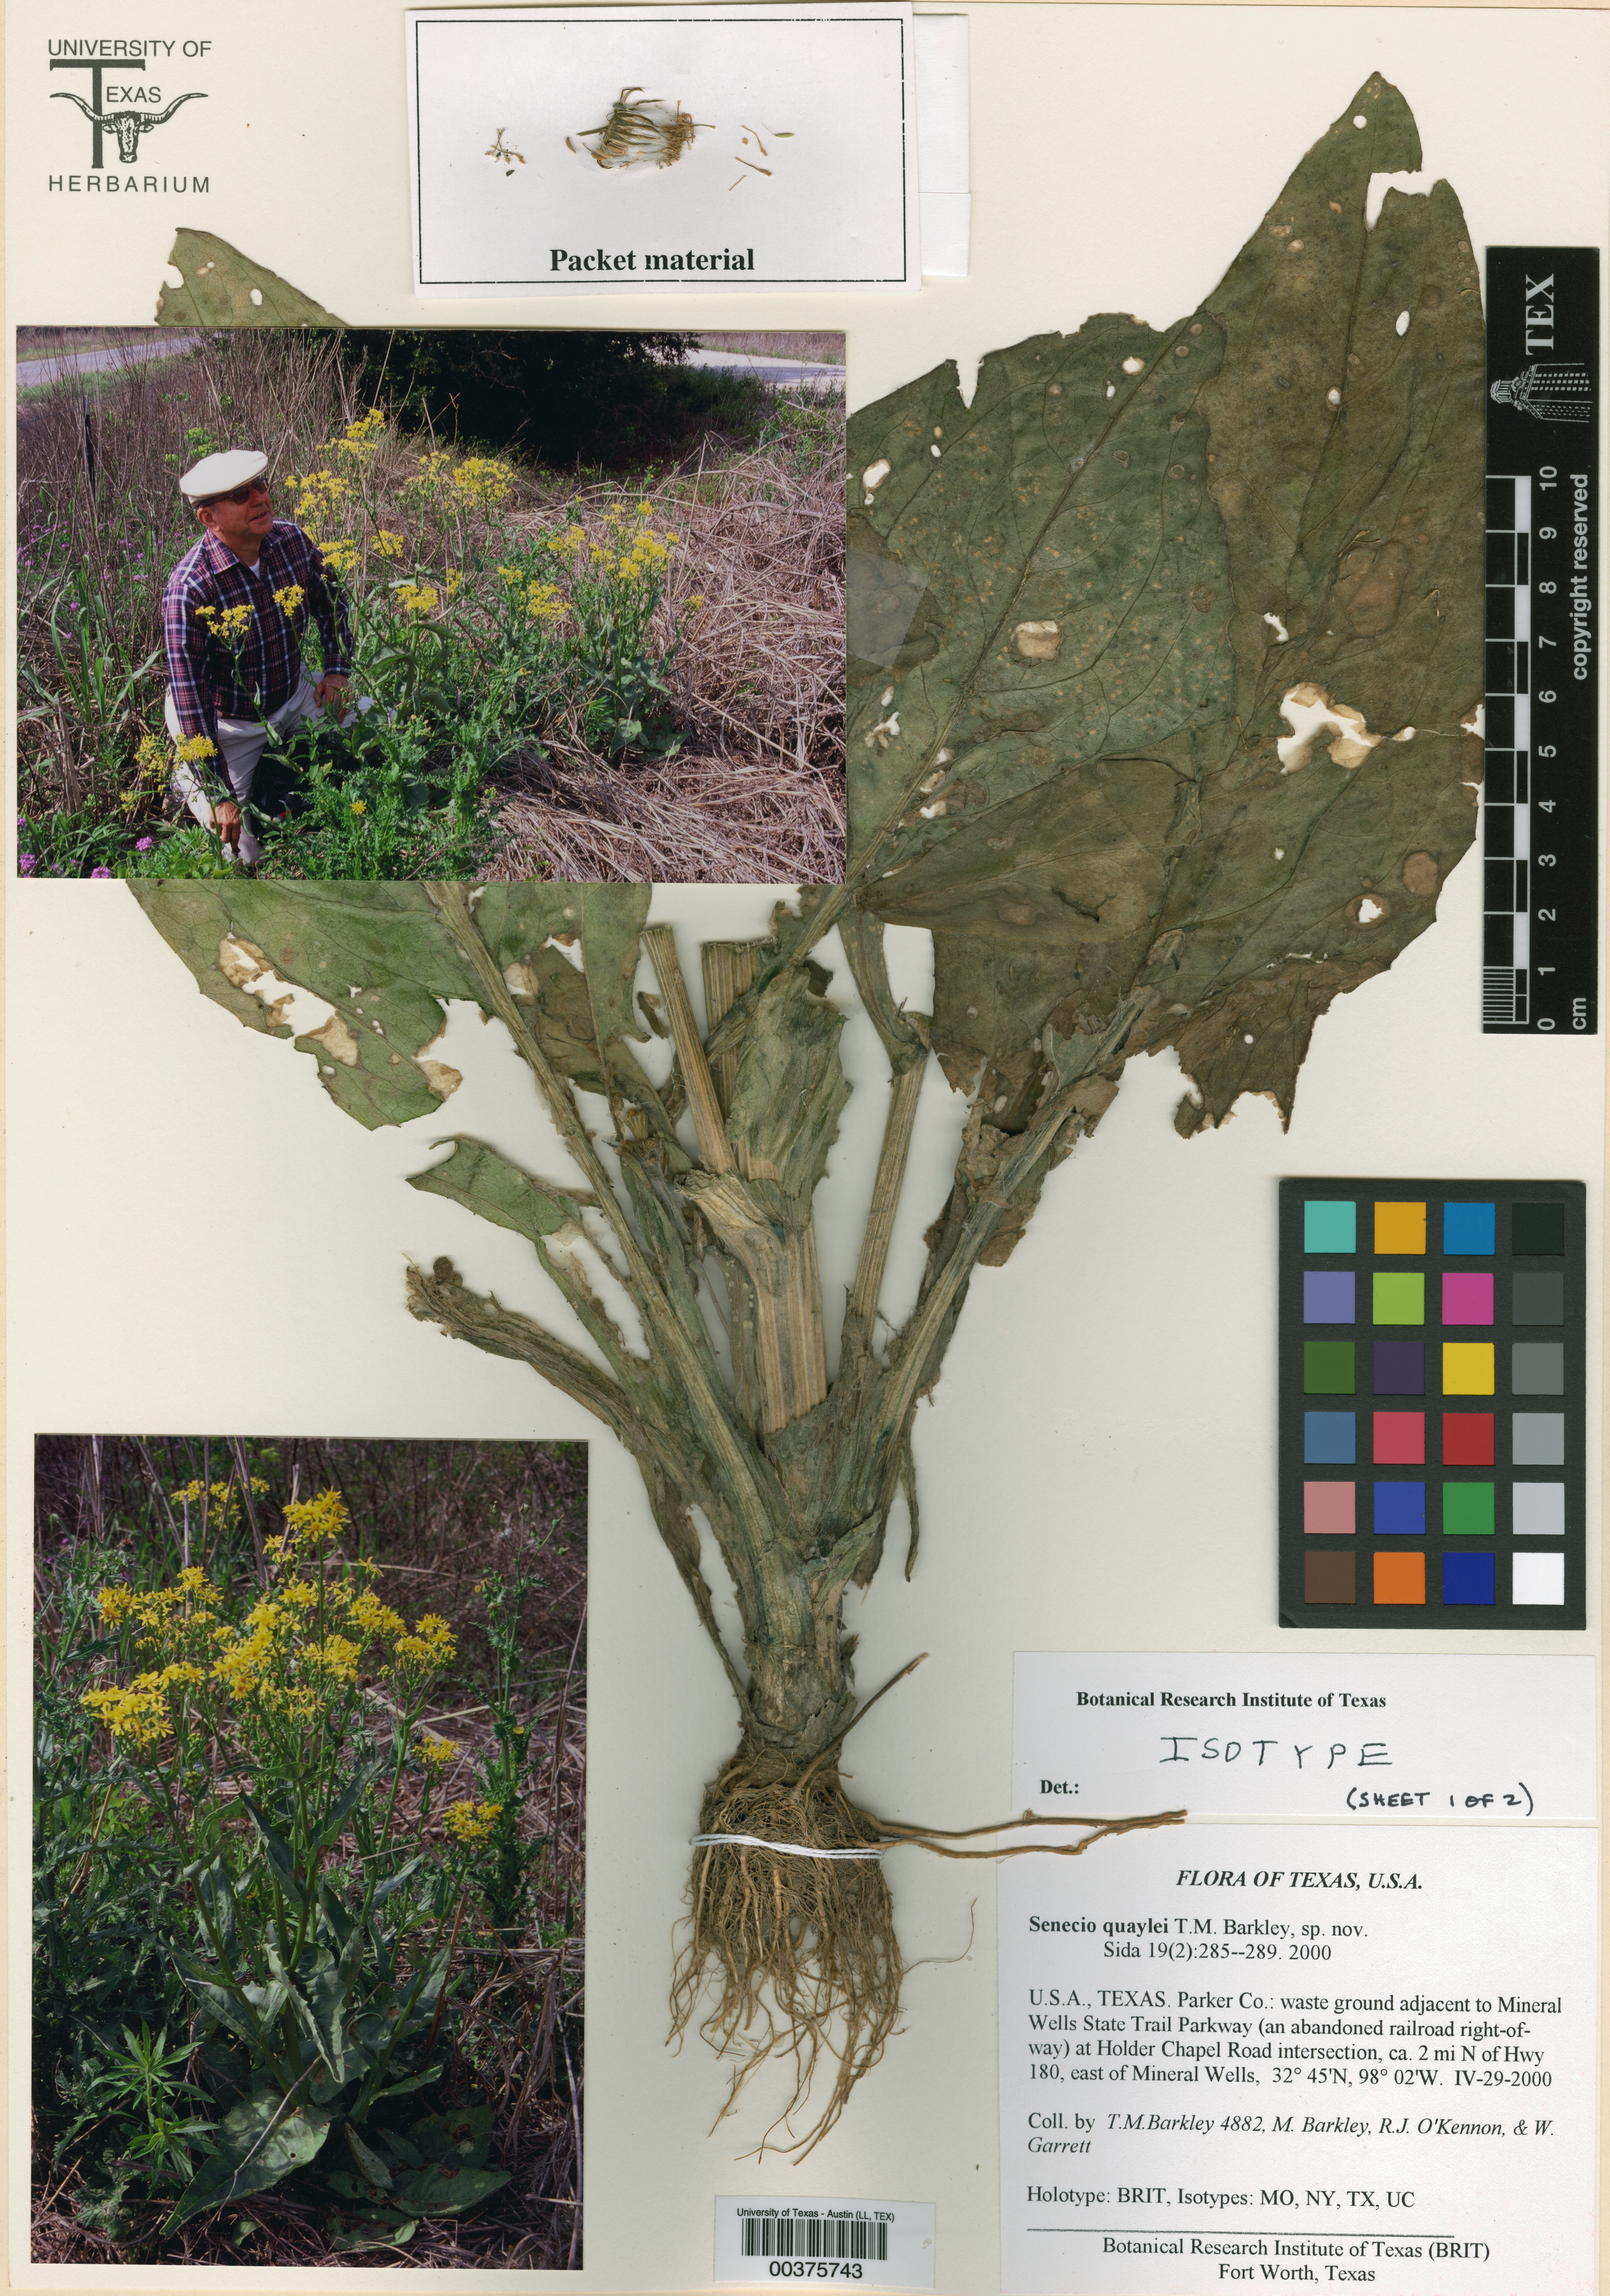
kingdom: Plantae
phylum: Tracheophyta
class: Magnoliopsida
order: Malpighiales
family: Hypericaceae
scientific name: Hypericaceae
